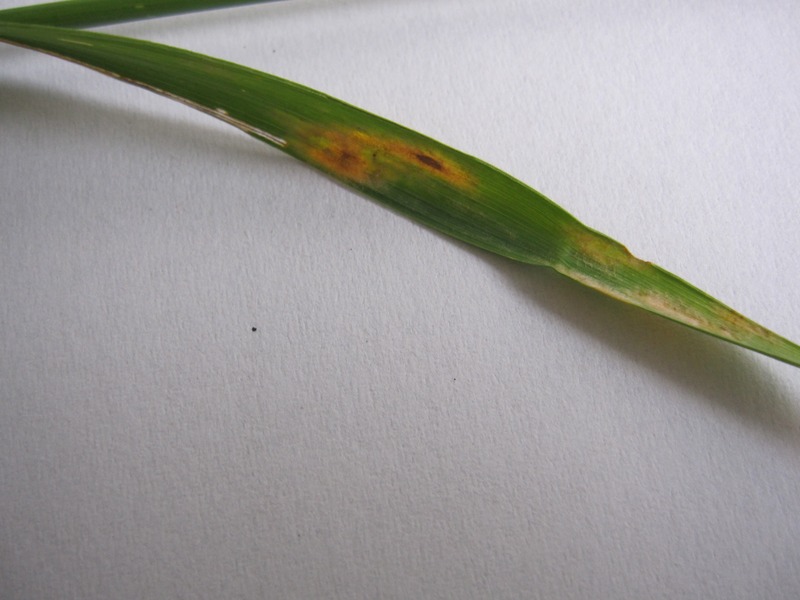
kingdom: Fungi
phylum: Basidiomycota
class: Pucciniomycetes
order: Pucciniales
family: Pucciniaceae
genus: Puccinia
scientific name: Puccinia recondita
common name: Brown rust of wheat
